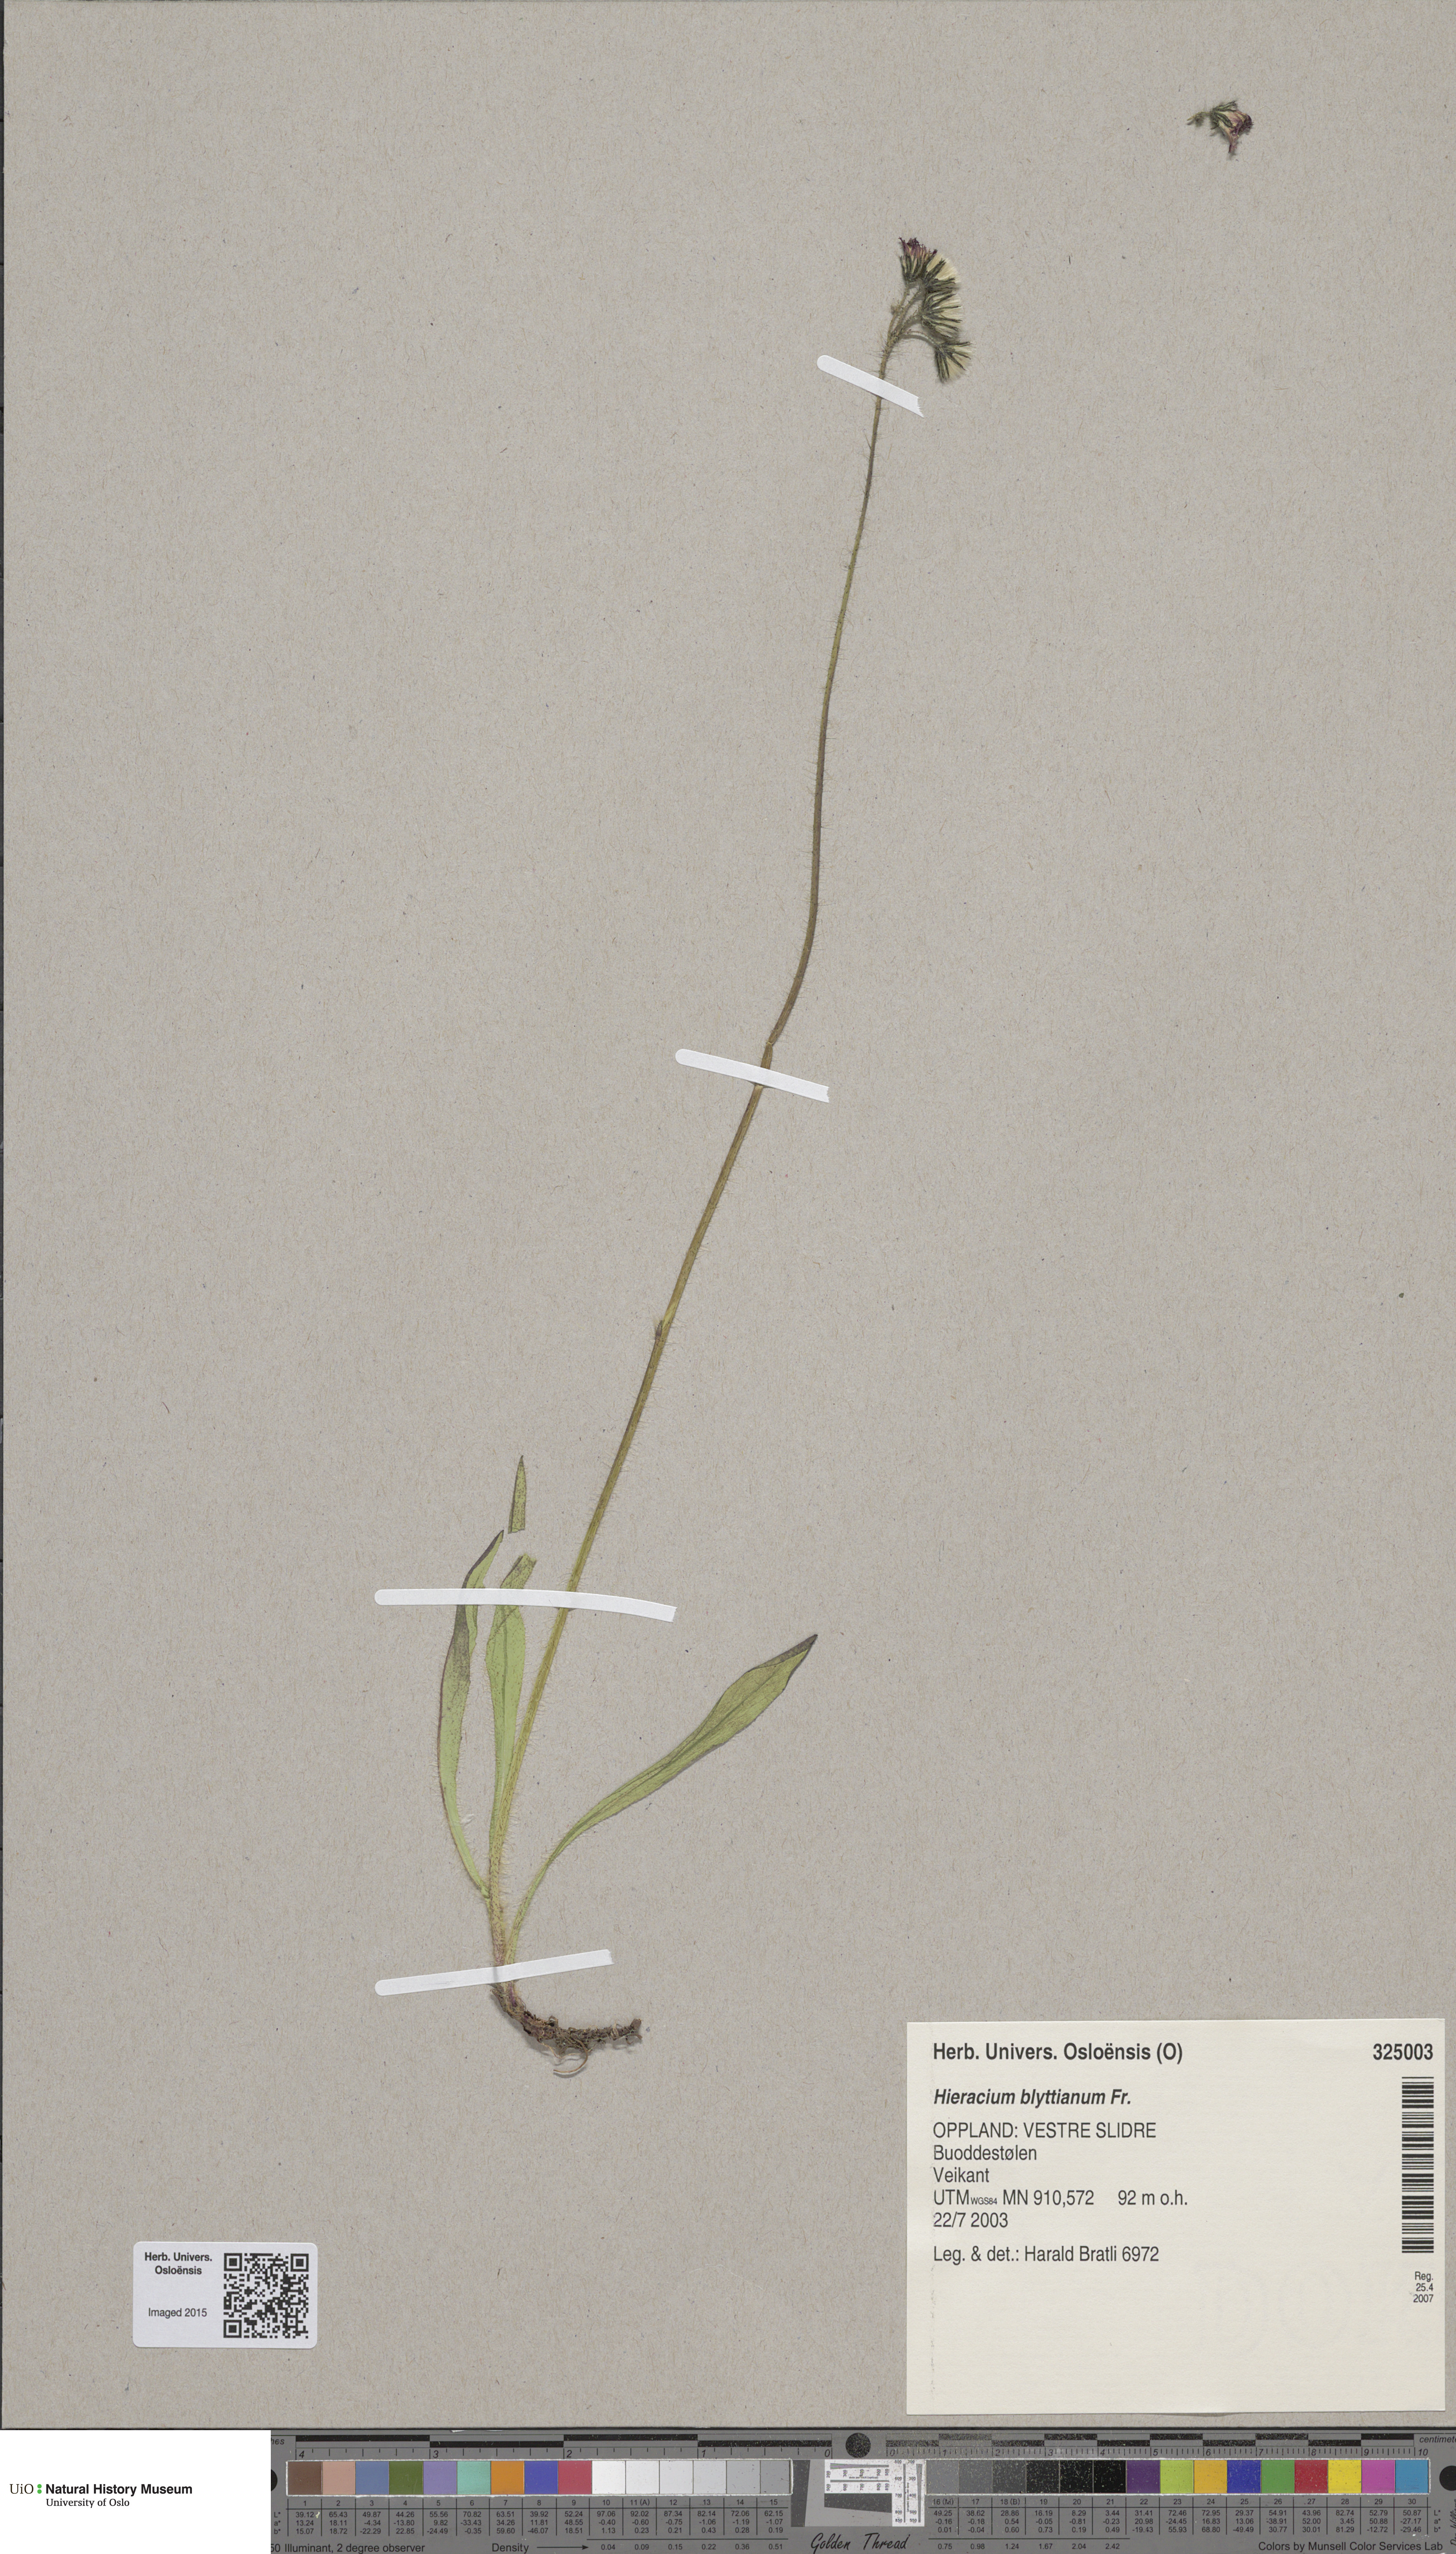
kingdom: Plantae
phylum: Tracheophyta
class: Magnoliopsida
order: Asterales
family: Asteraceae
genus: Pilosella
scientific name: Pilosella blyttiana
